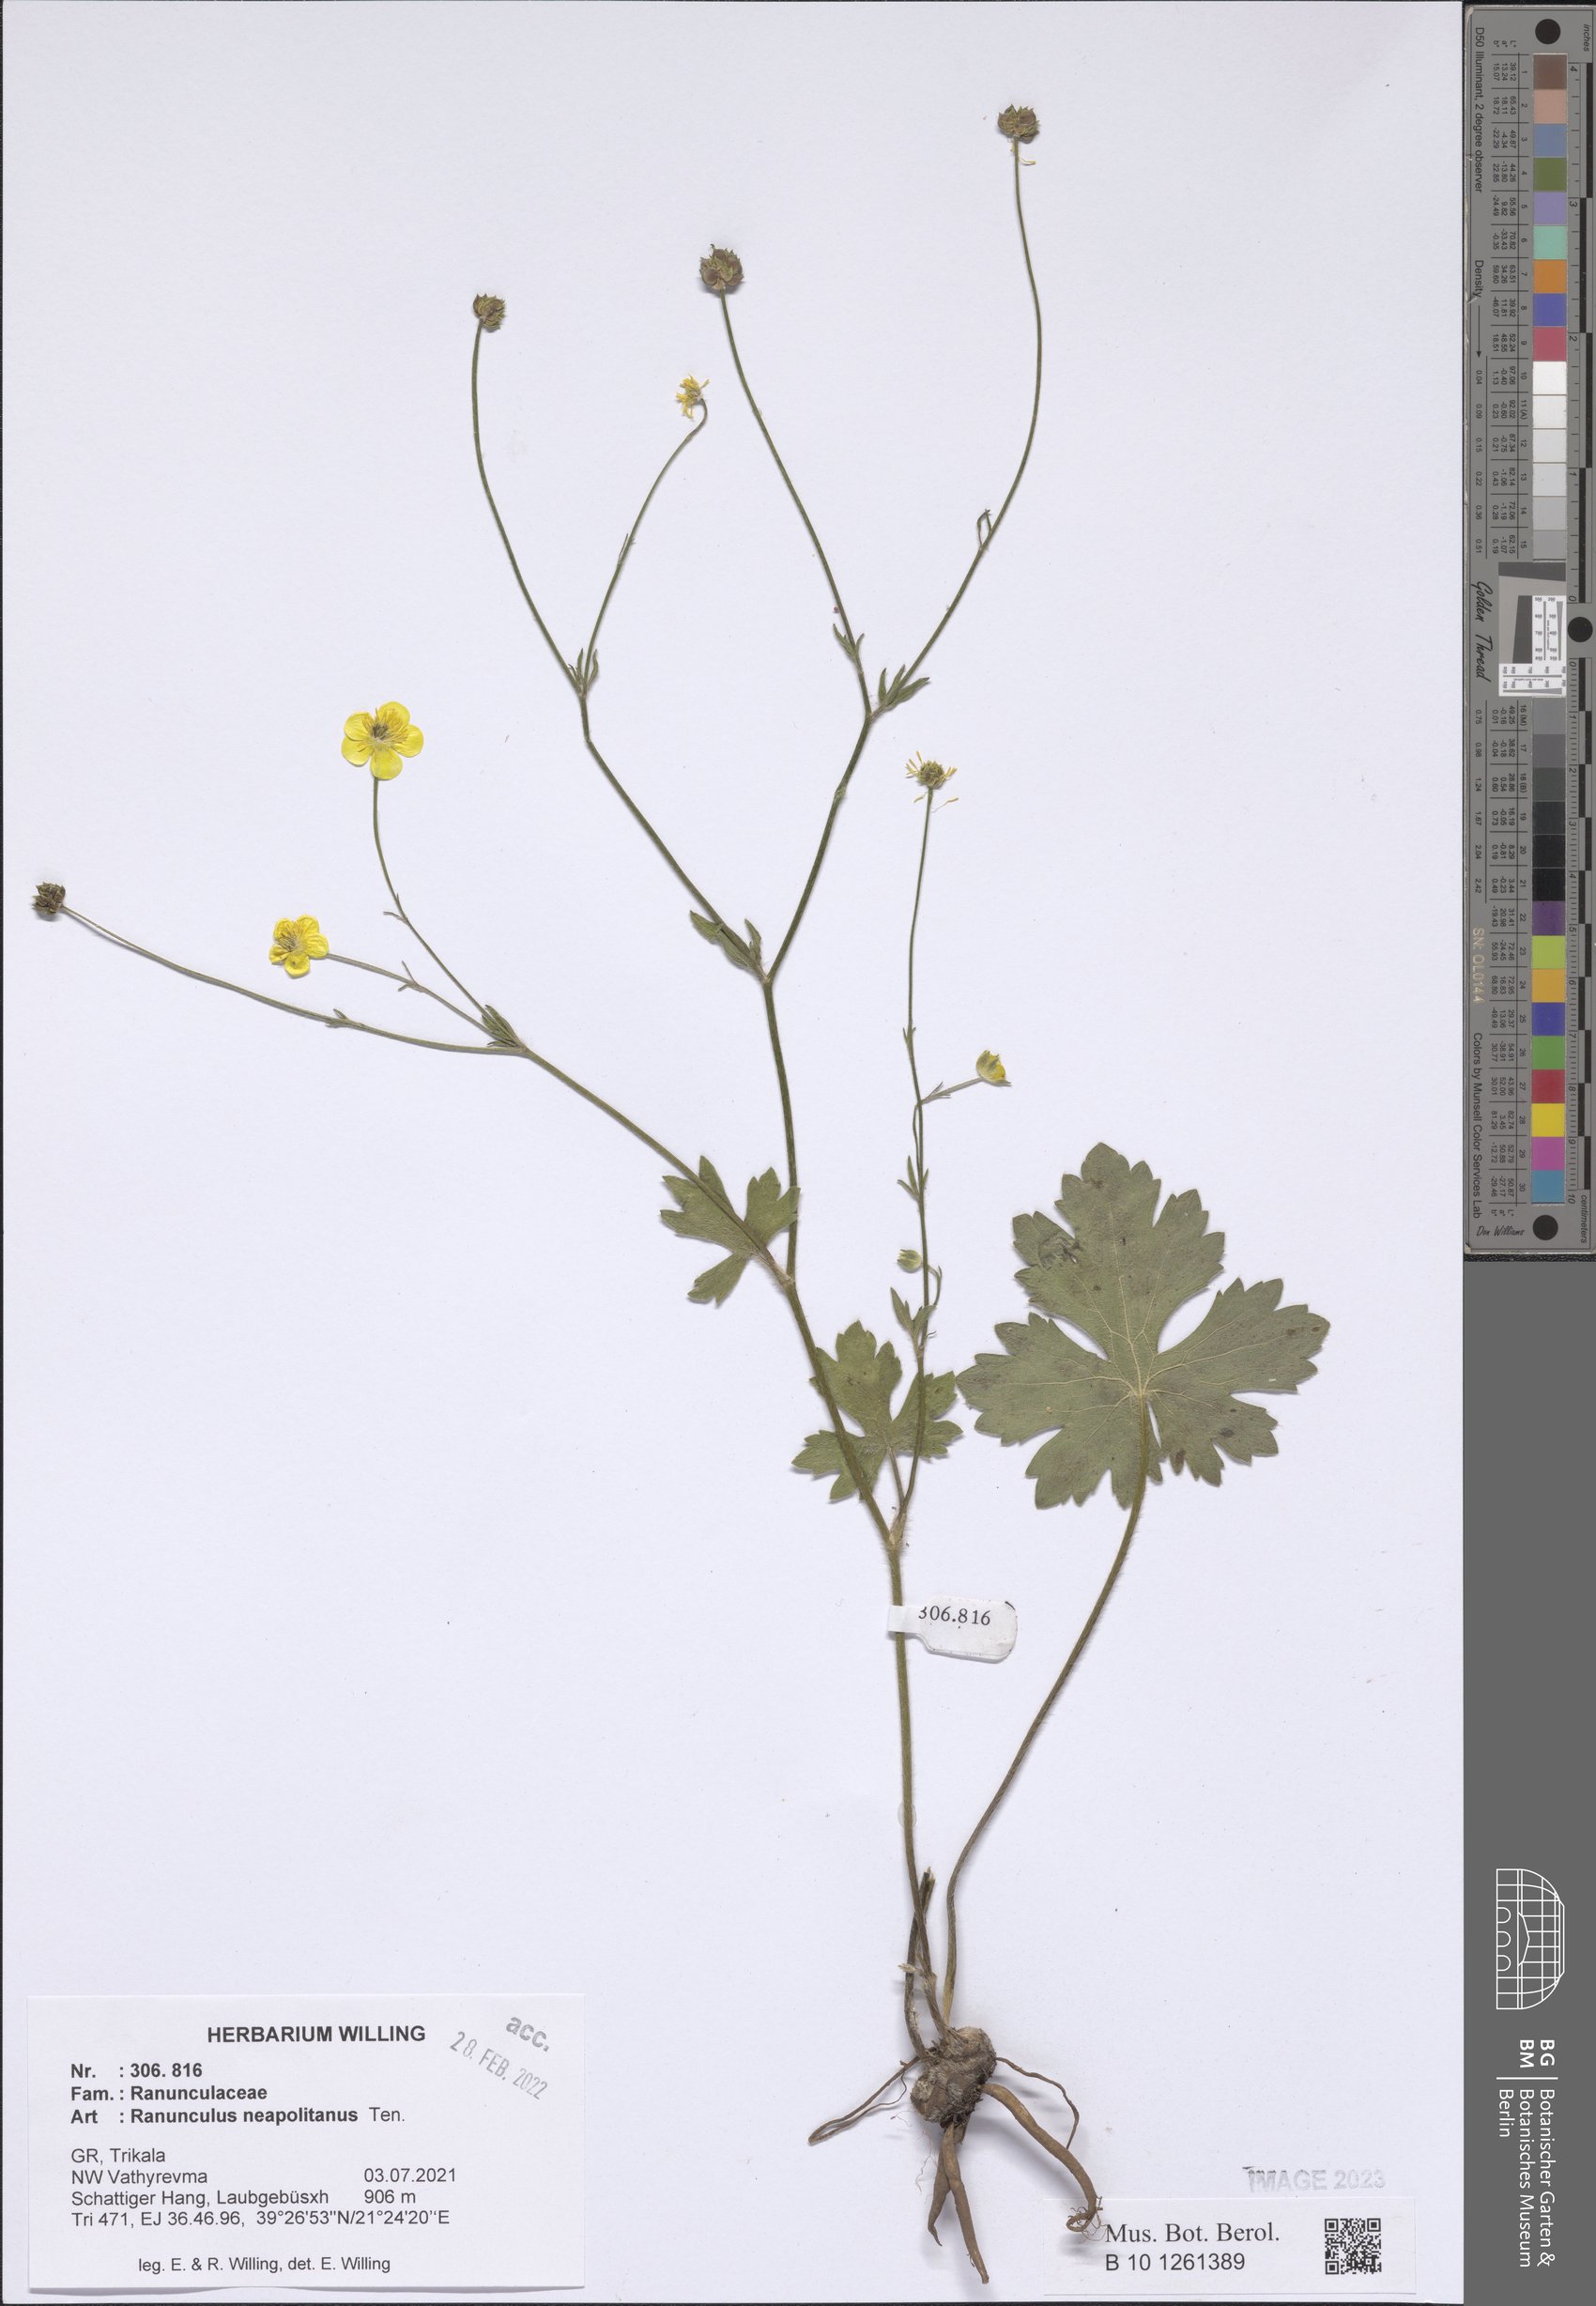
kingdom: Plantae
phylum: Tracheophyta
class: Magnoliopsida
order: Ranunculales
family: Ranunculaceae
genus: Ranunculus
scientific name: Ranunculus neapolitanus
